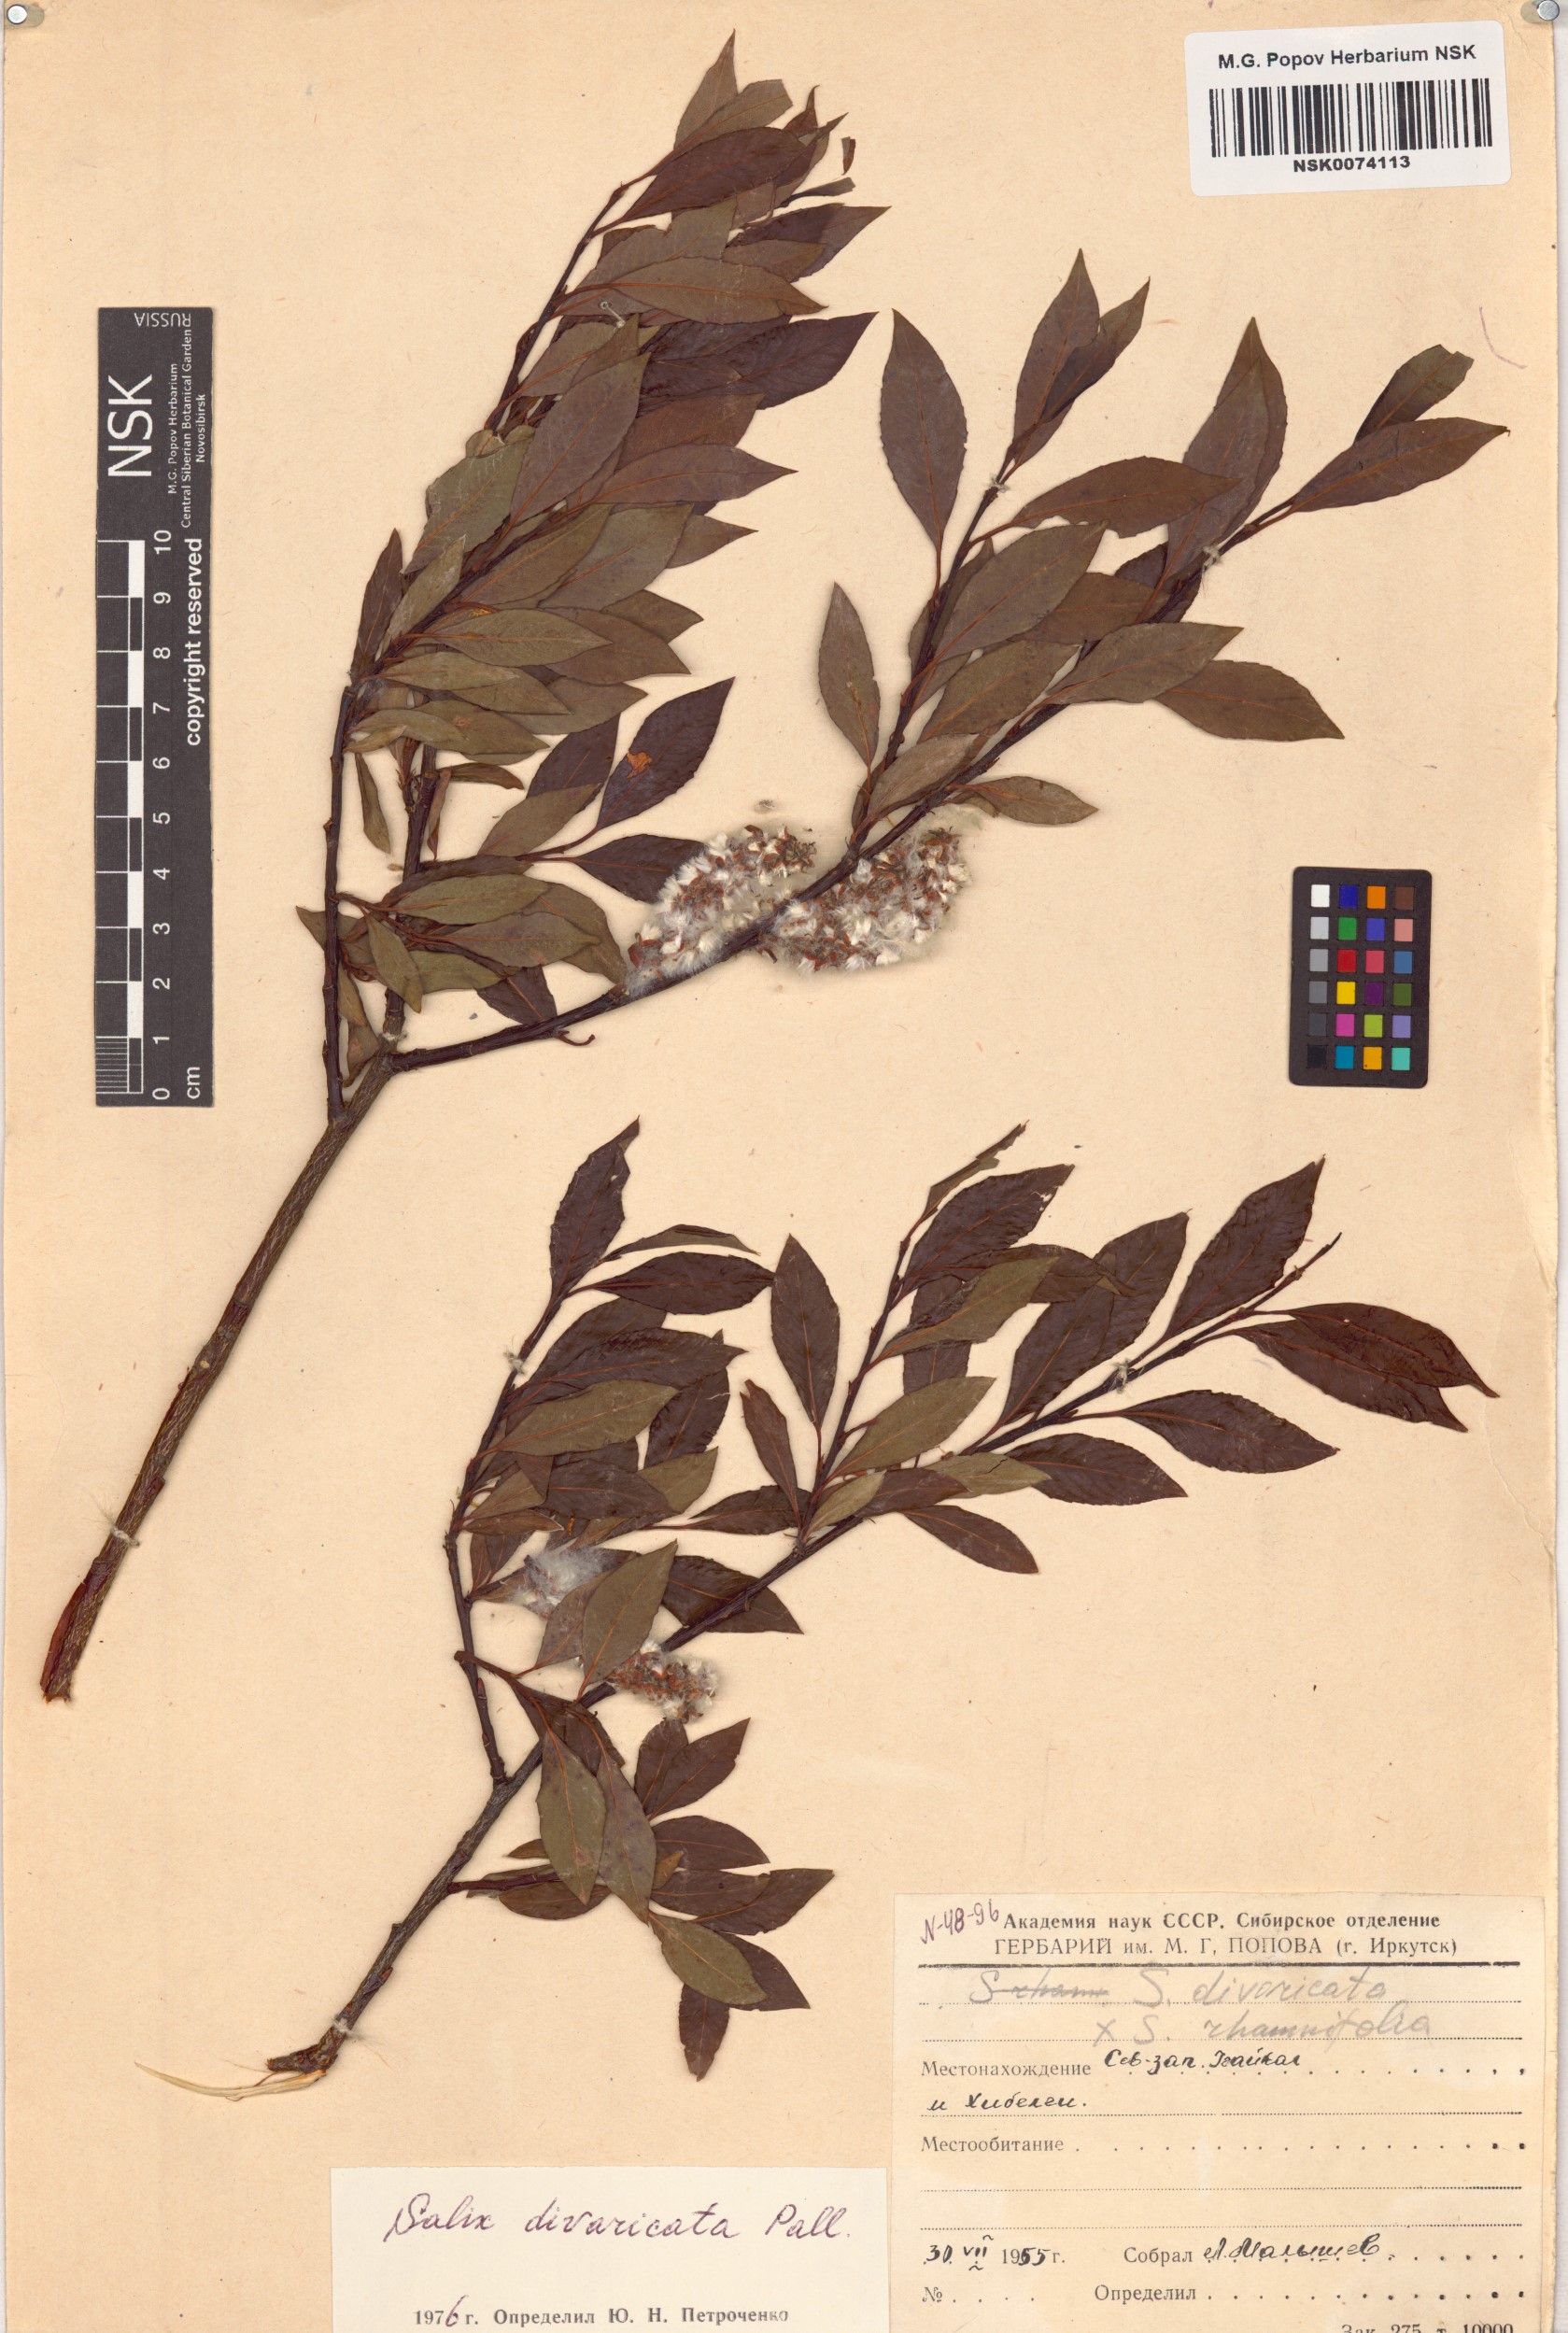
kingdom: Plantae
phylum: Tracheophyta
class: Magnoliopsida
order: Malpighiales
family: Salicaceae
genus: Salix
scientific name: Salix divaricata
